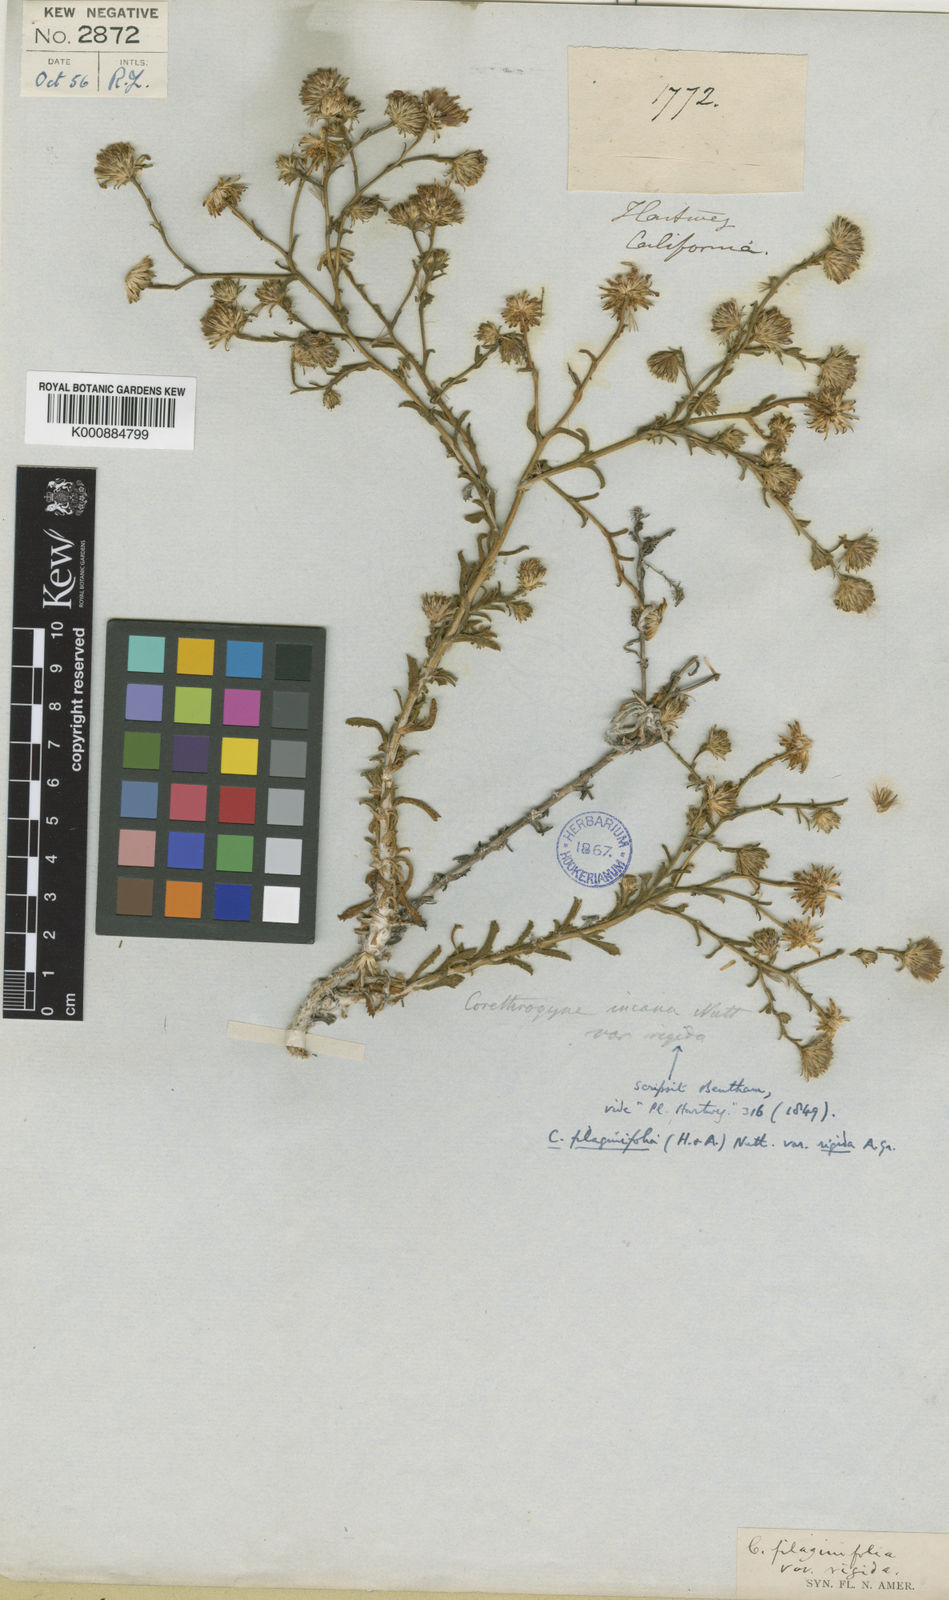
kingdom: Plantae
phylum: Tracheophyta
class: Magnoliopsida
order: Asterales
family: Asteraceae
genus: Corethrogyne
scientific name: Corethrogyne filaginifolia
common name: Sand-aster
